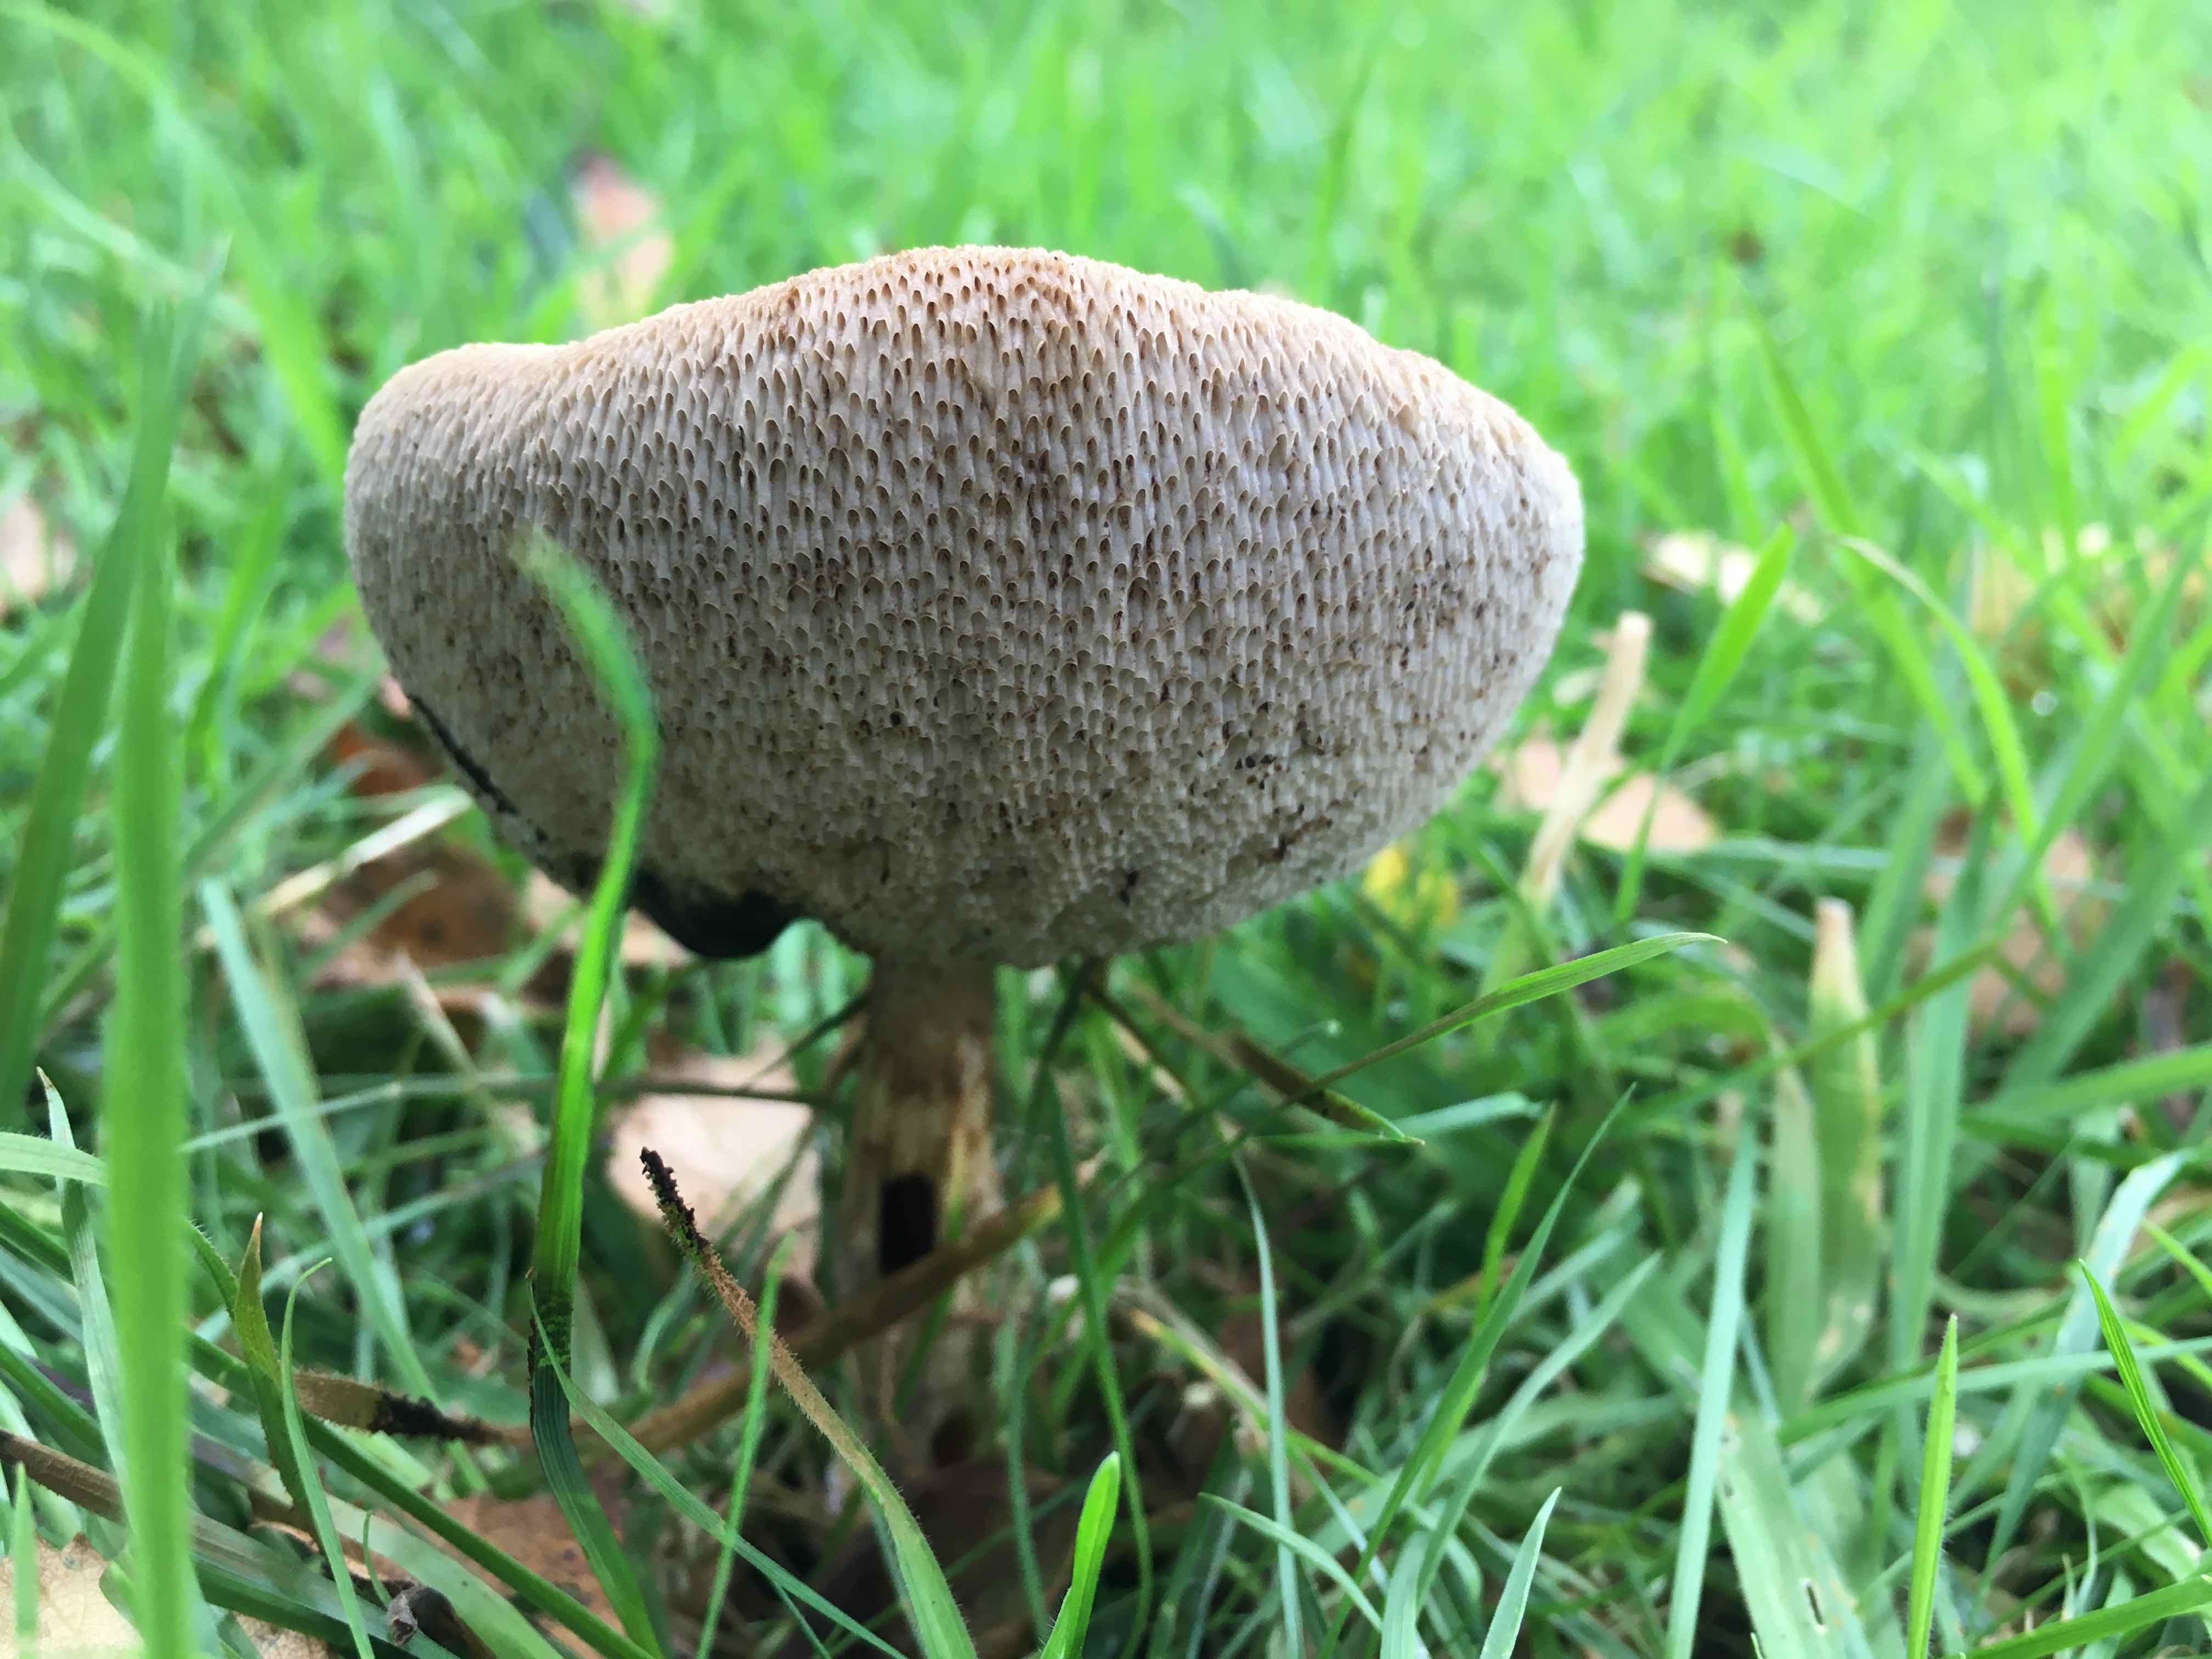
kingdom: Fungi
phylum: Basidiomycota
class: Agaricomycetes
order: Boletales
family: Boletaceae
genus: Leccinum
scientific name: Leccinum
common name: skælrørhat
